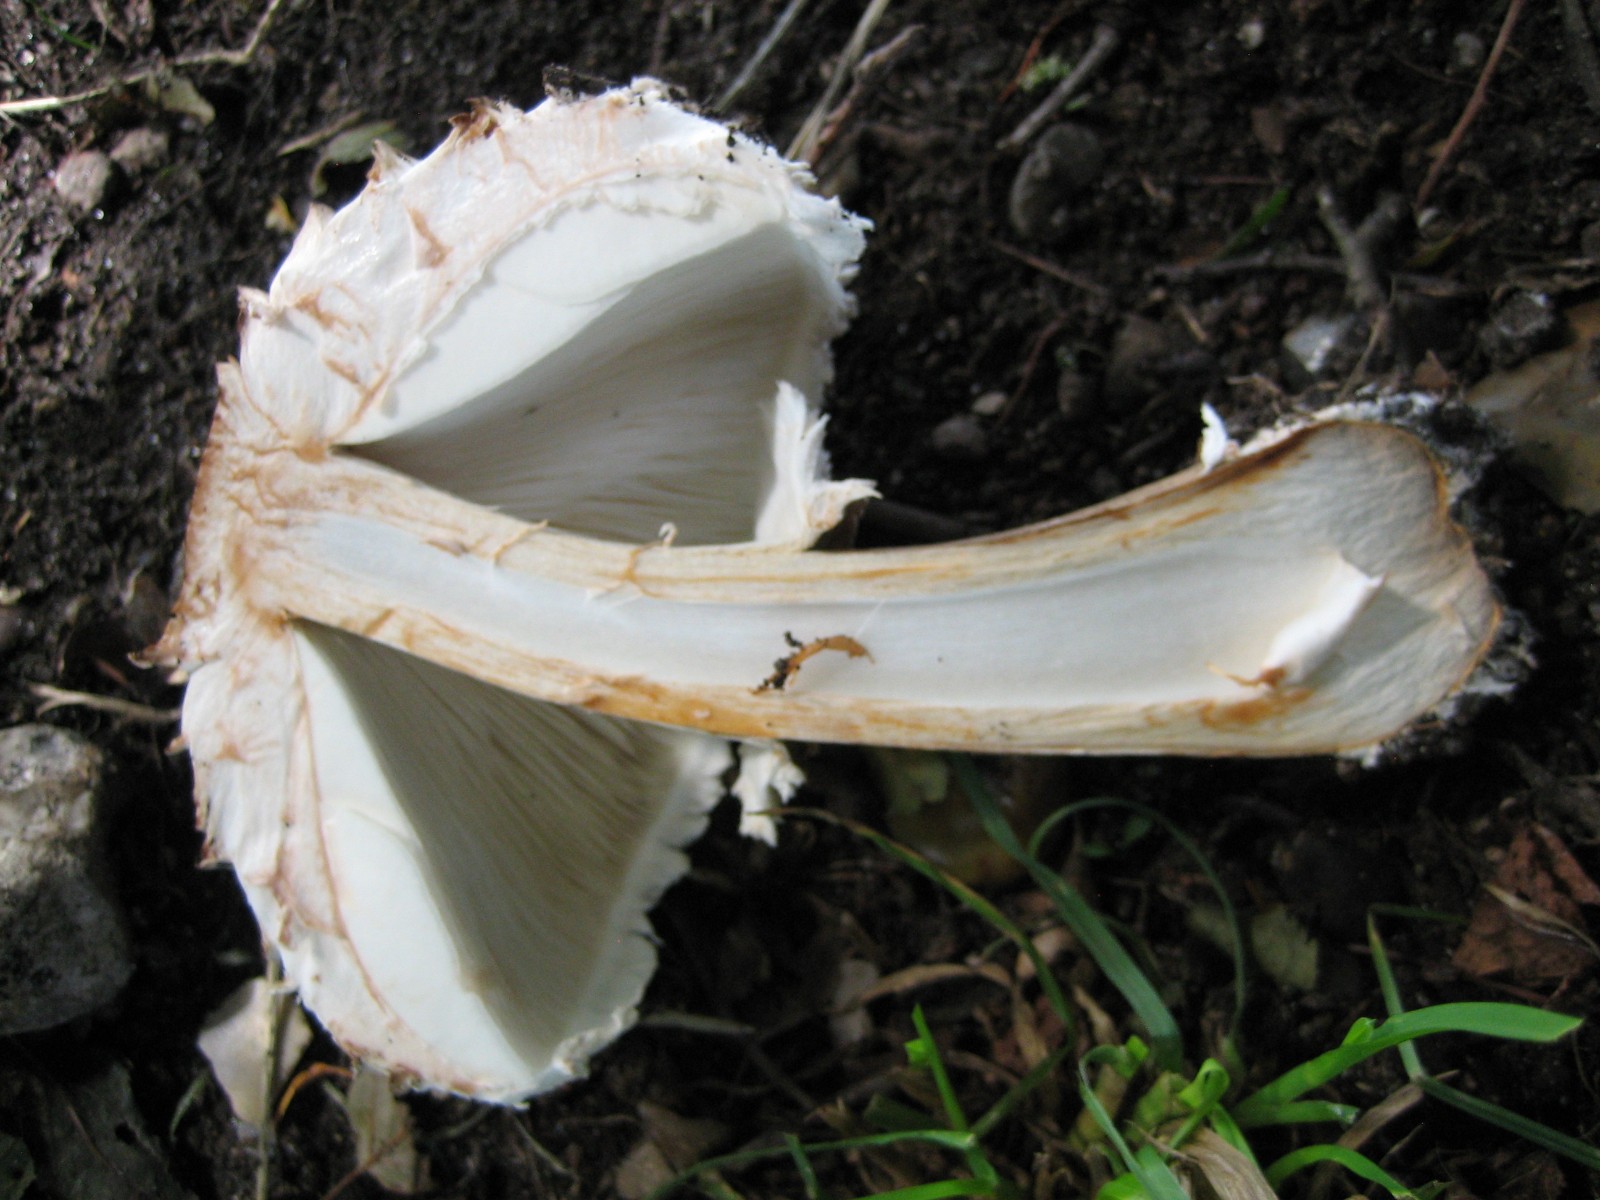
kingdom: Fungi
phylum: Basidiomycota
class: Agaricomycetes
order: Agaricales
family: Agaricaceae
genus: Chlorophyllum
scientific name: Chlorophyllum rhacodes
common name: ægte rabarberhat
